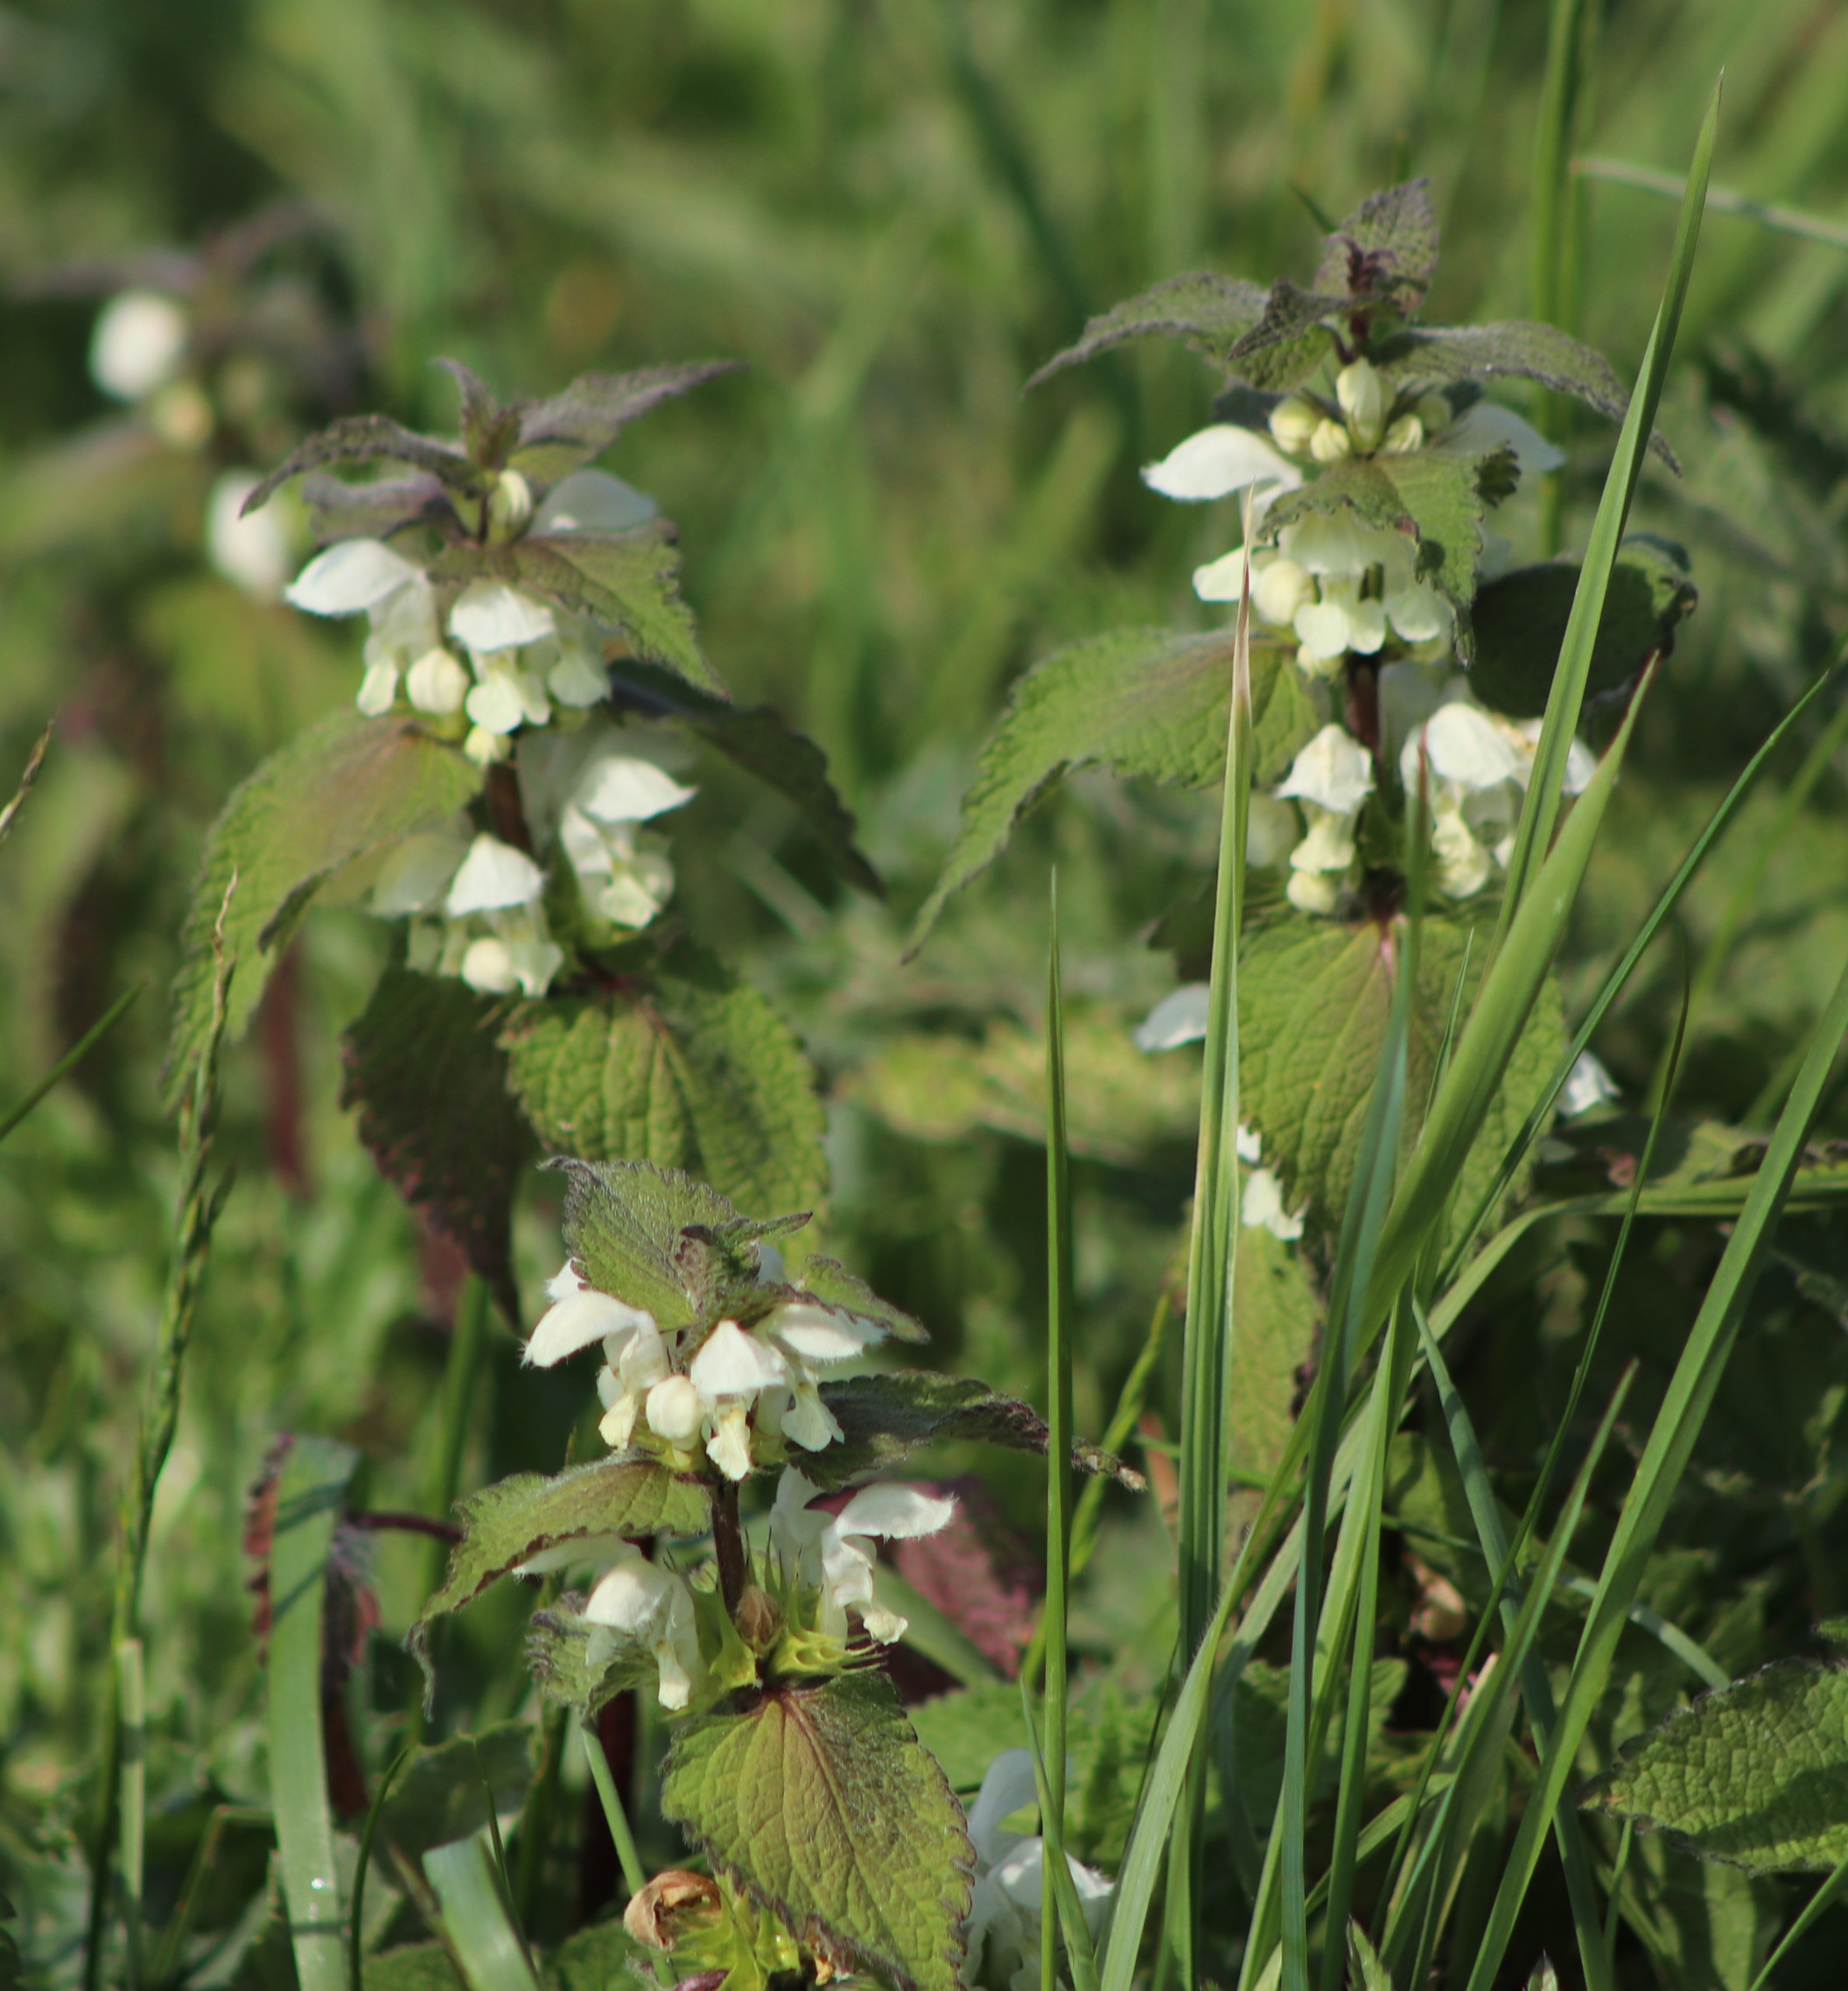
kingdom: Plantae
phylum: Tracheophyta
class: Magnoliopsida
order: Lamiales
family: Lamiaceae
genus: Lamium
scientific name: Lamium album
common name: Døvnælde
